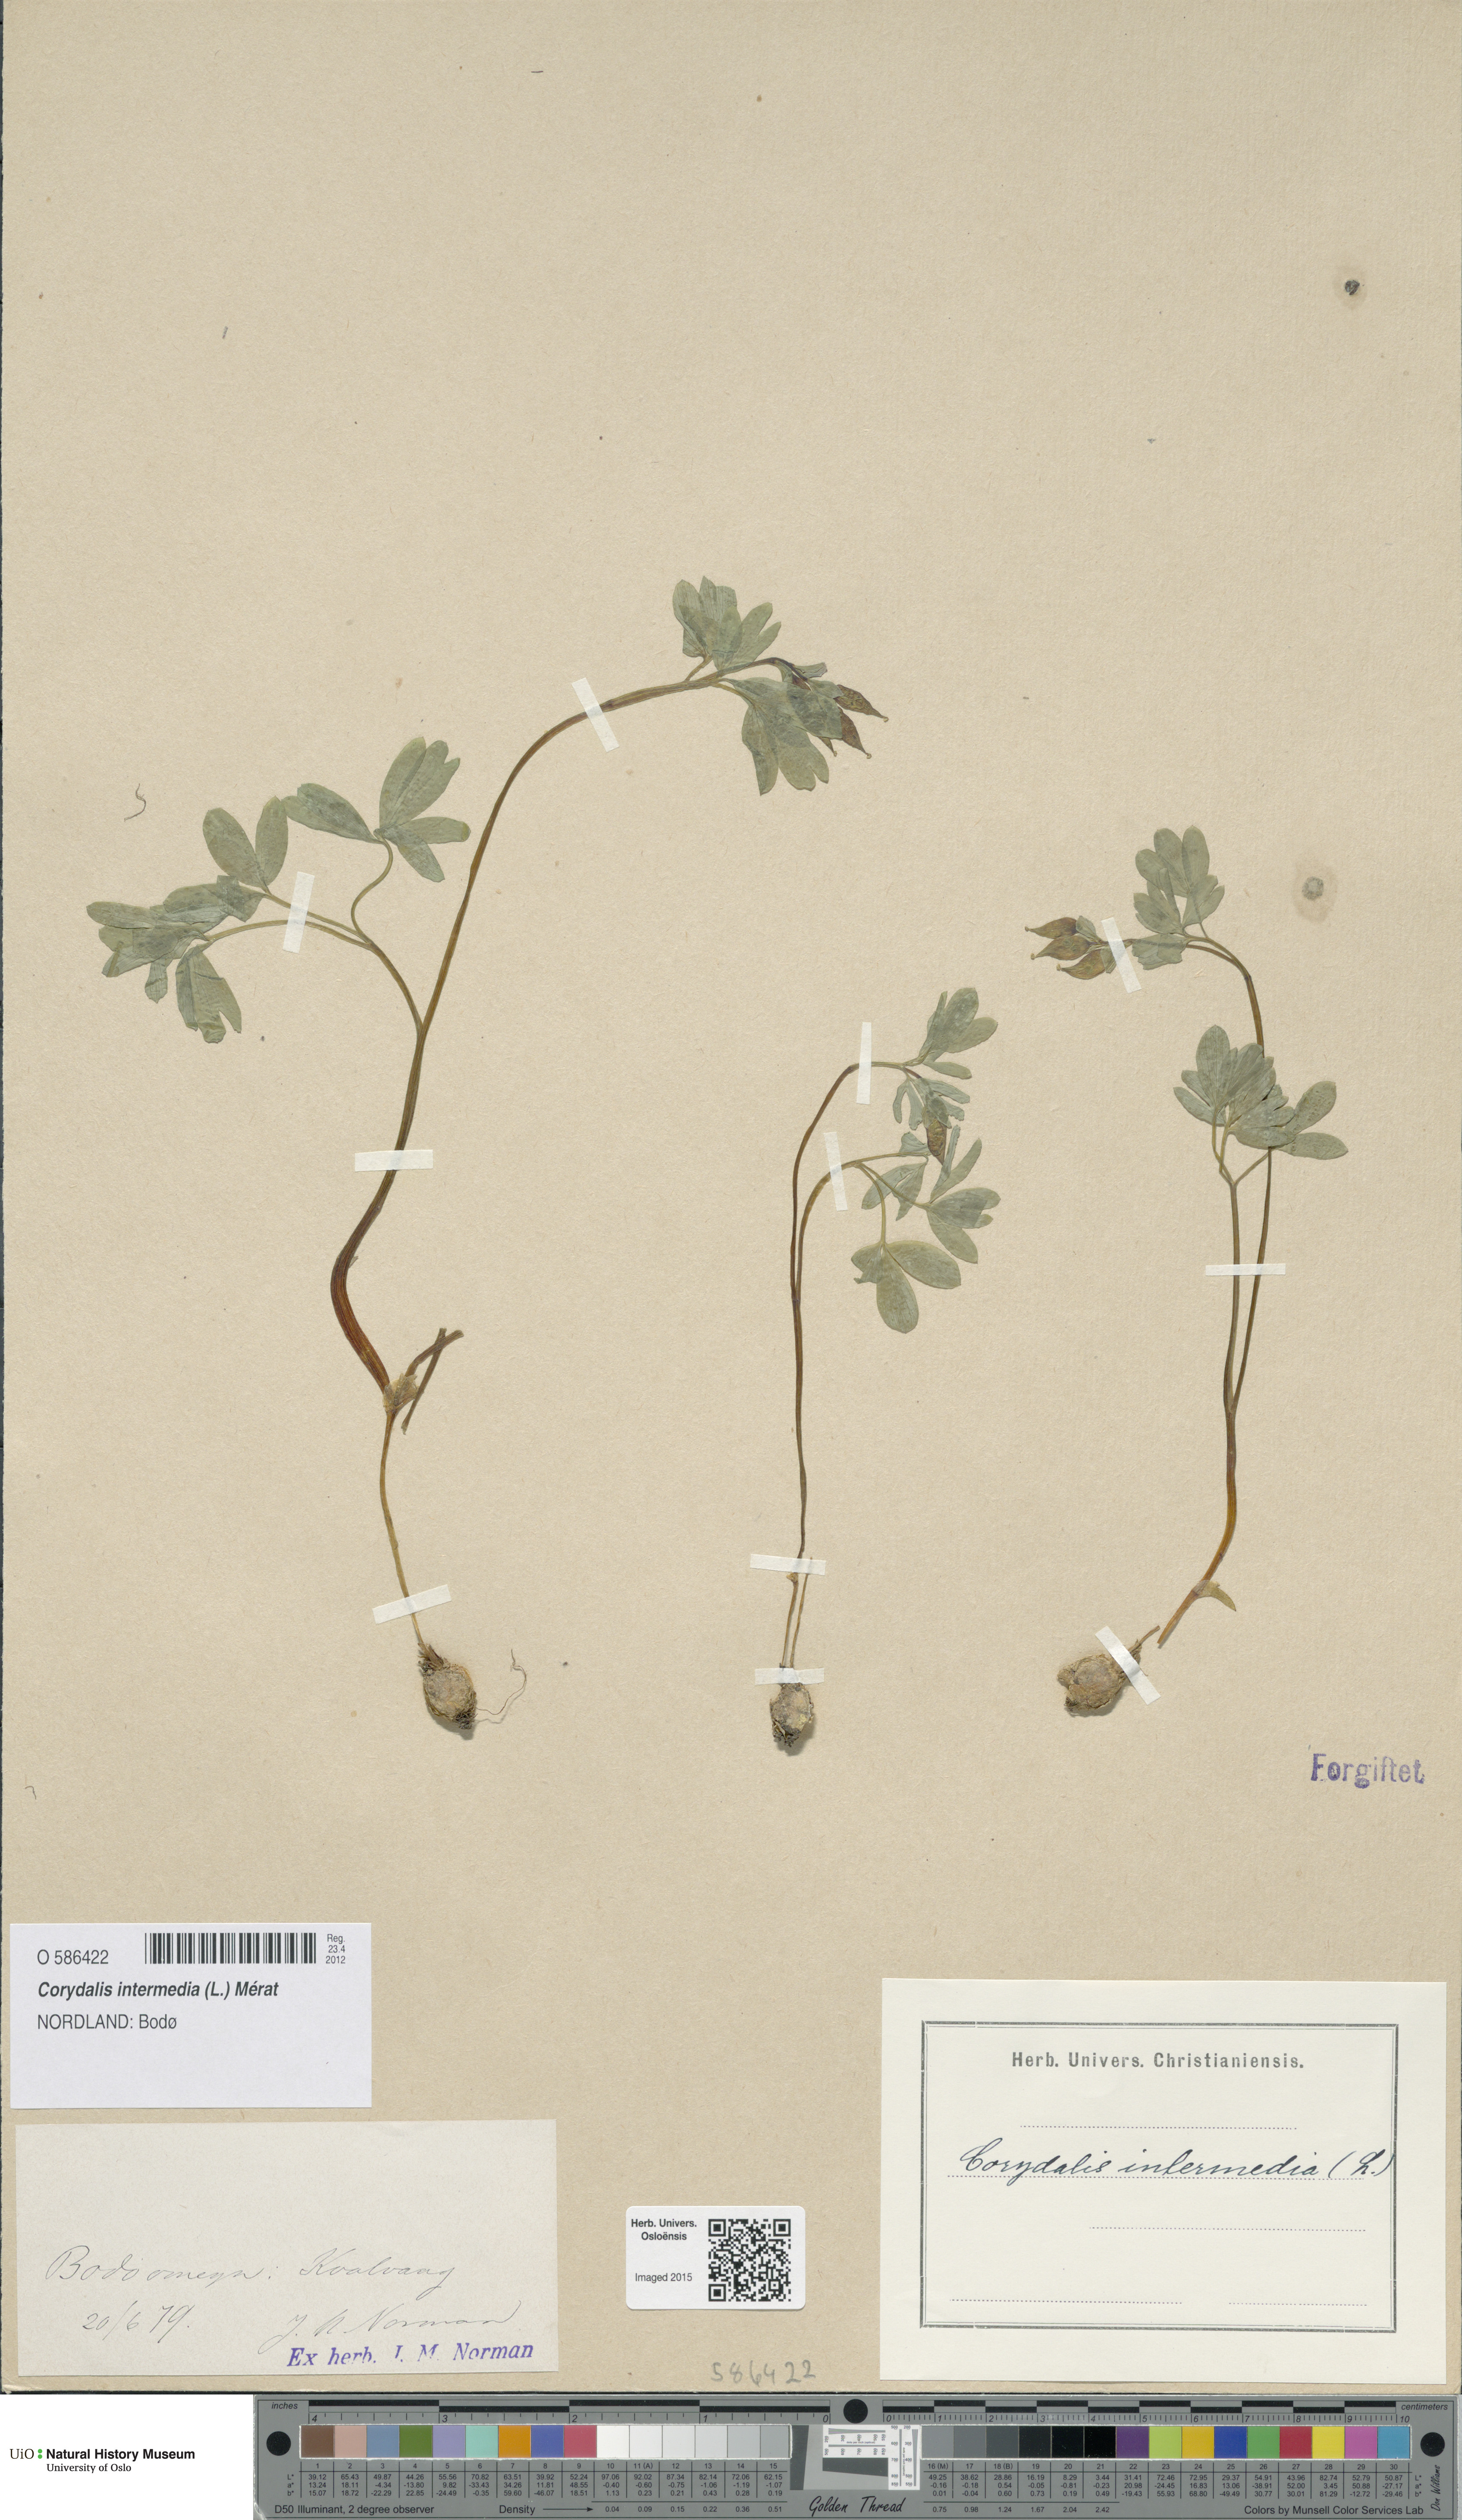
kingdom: Plantae
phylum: Tracheophyta
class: Magnoliopsida
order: Ranunculales
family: Papaveraceae
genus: Corydalis
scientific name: Corydalis intermedia
